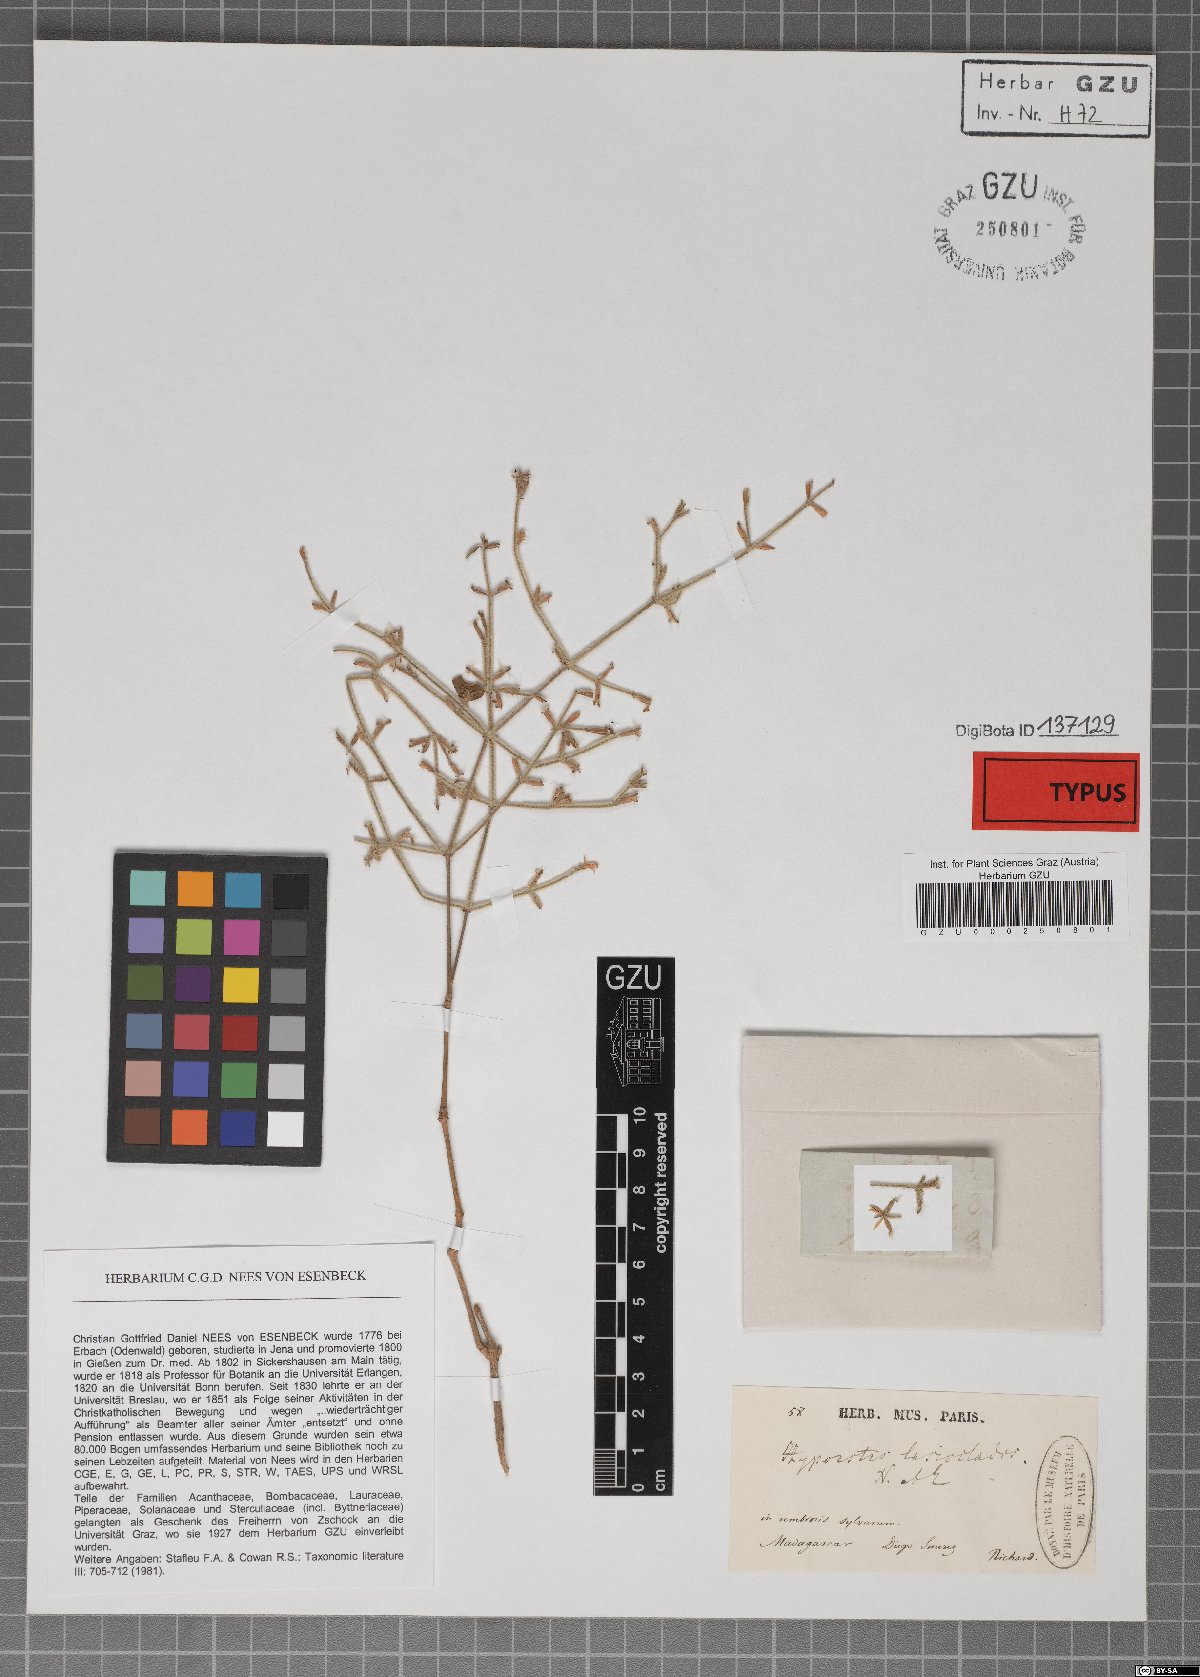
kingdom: Plantae
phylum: Tracheophyta
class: Magnoliopsida
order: Lamiales
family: Acanthaceae
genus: Hypoestes
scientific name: Hypoestes lasioclada
